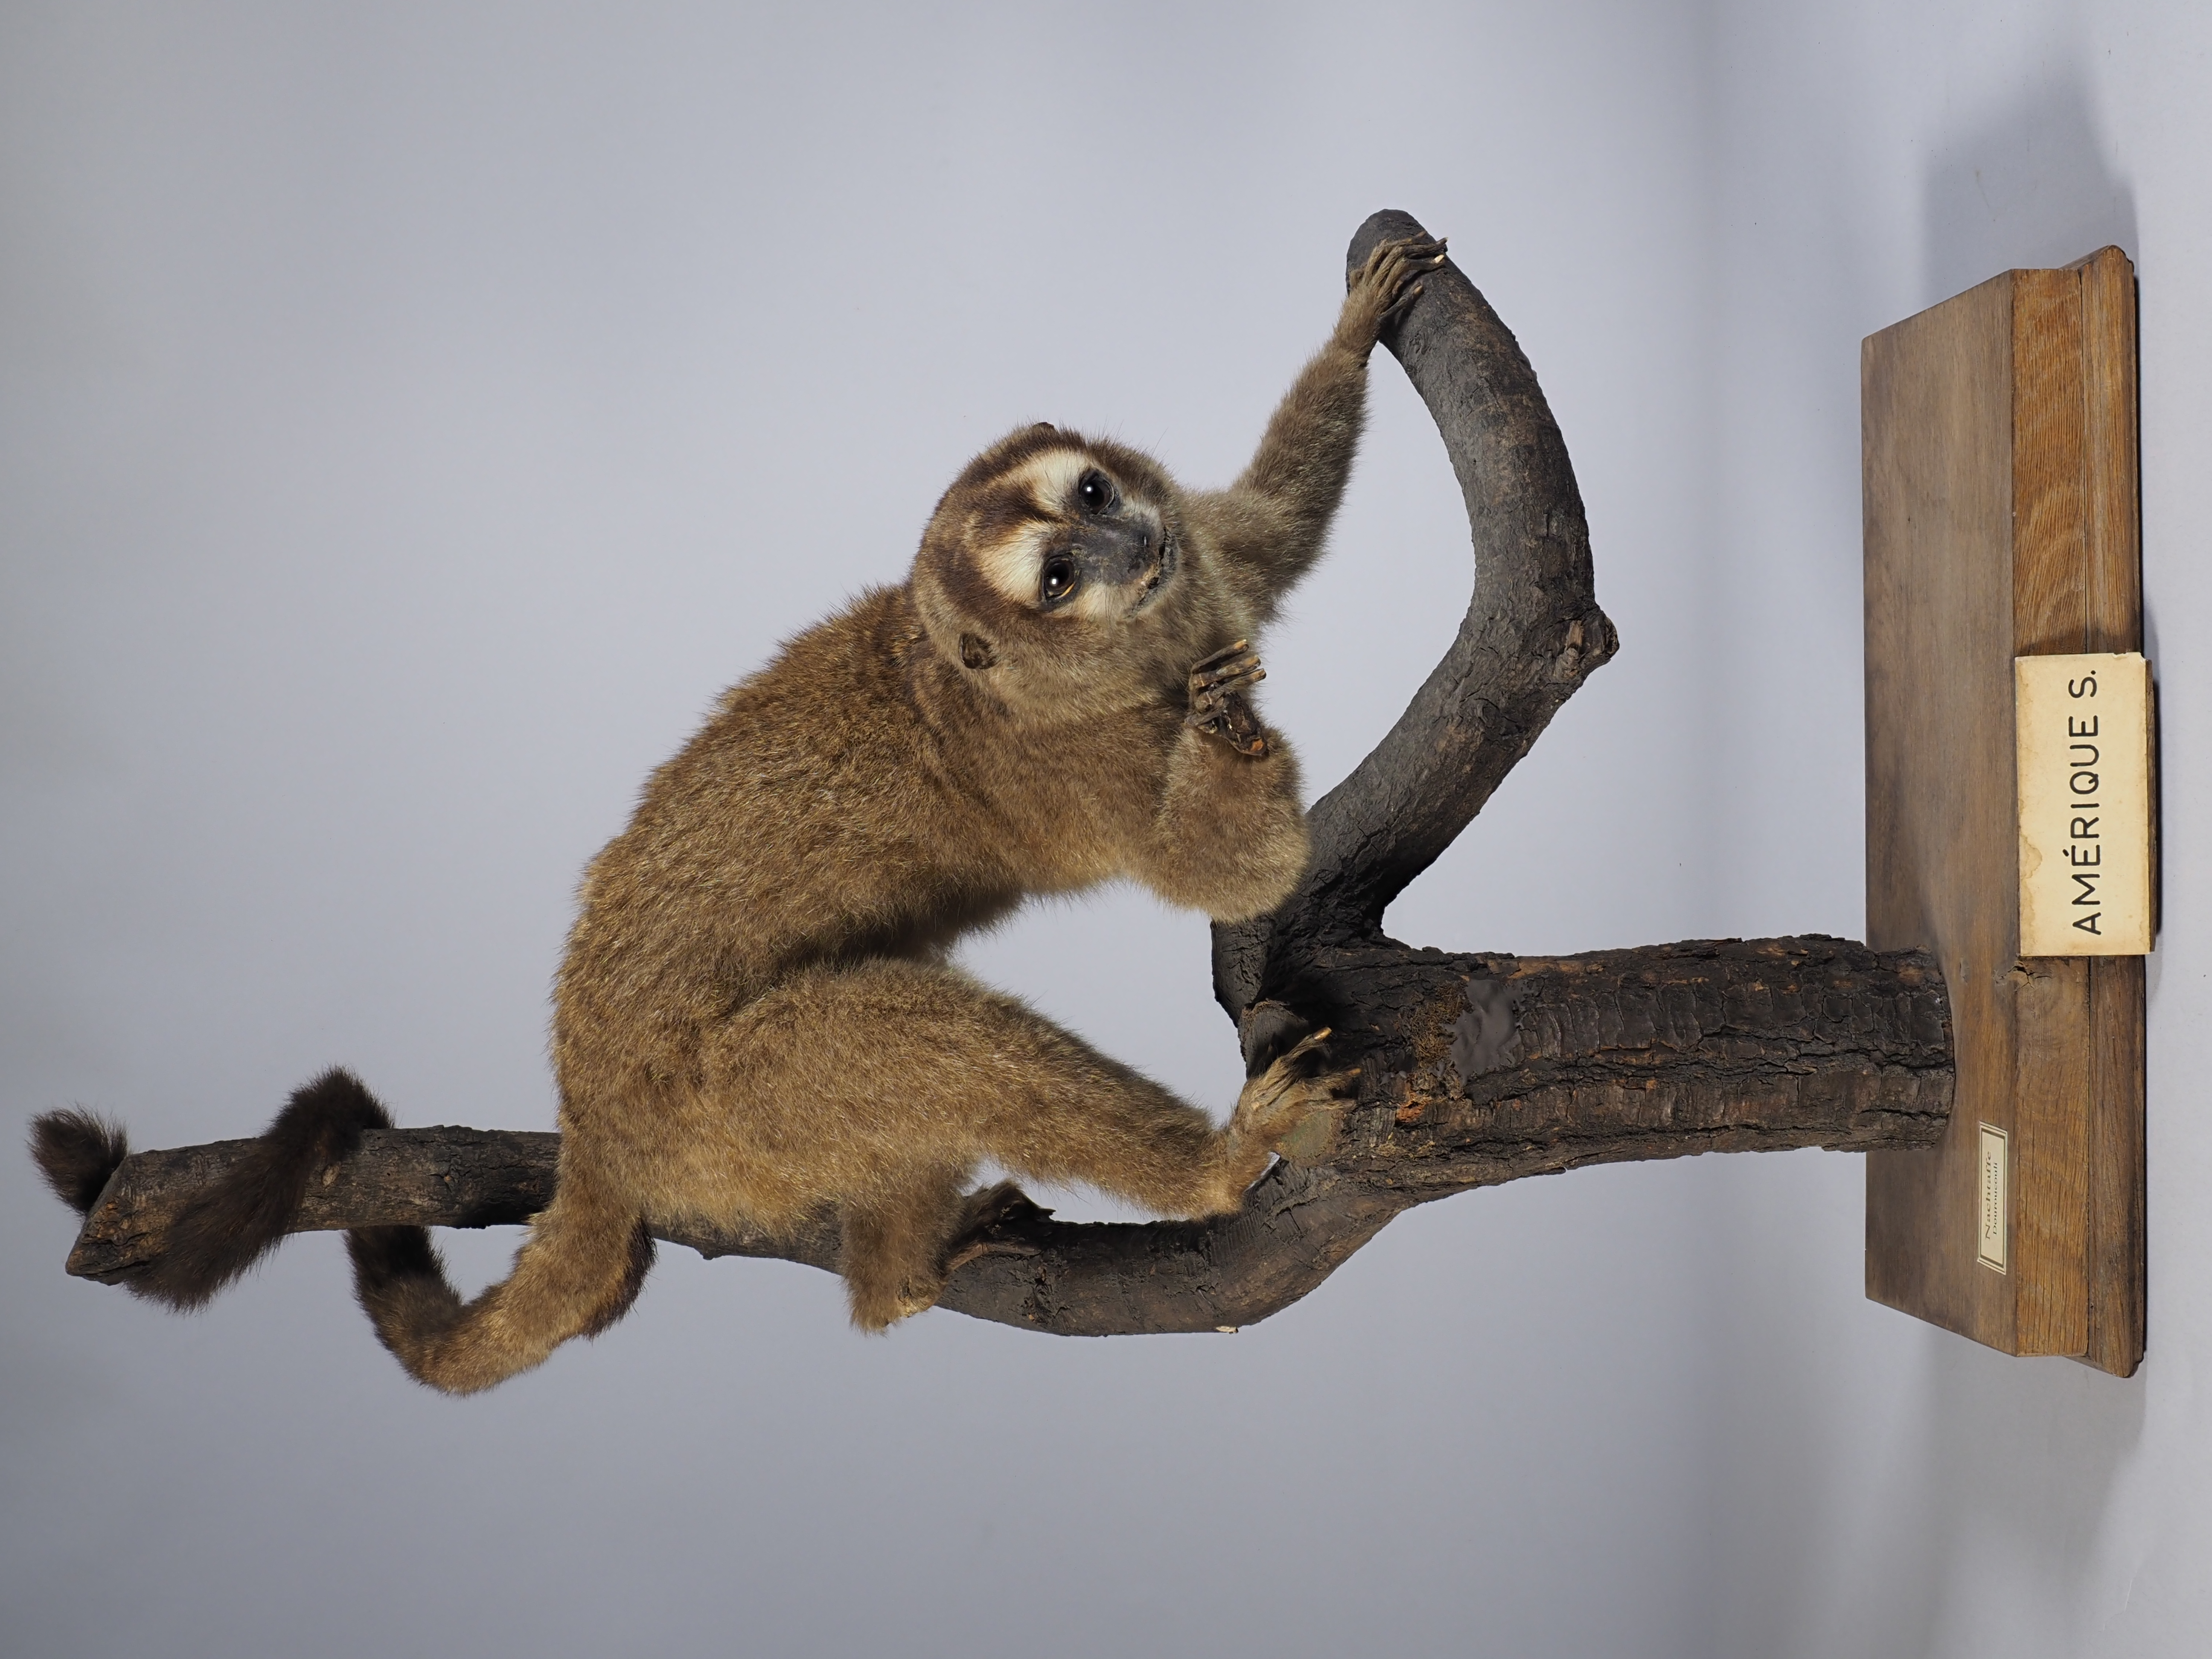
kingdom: Animalia
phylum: Chordata
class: Mammalia
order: Primates
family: Aotidae
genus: Aotus
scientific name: Aotus trivirgatus
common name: Three-striped night monkey
